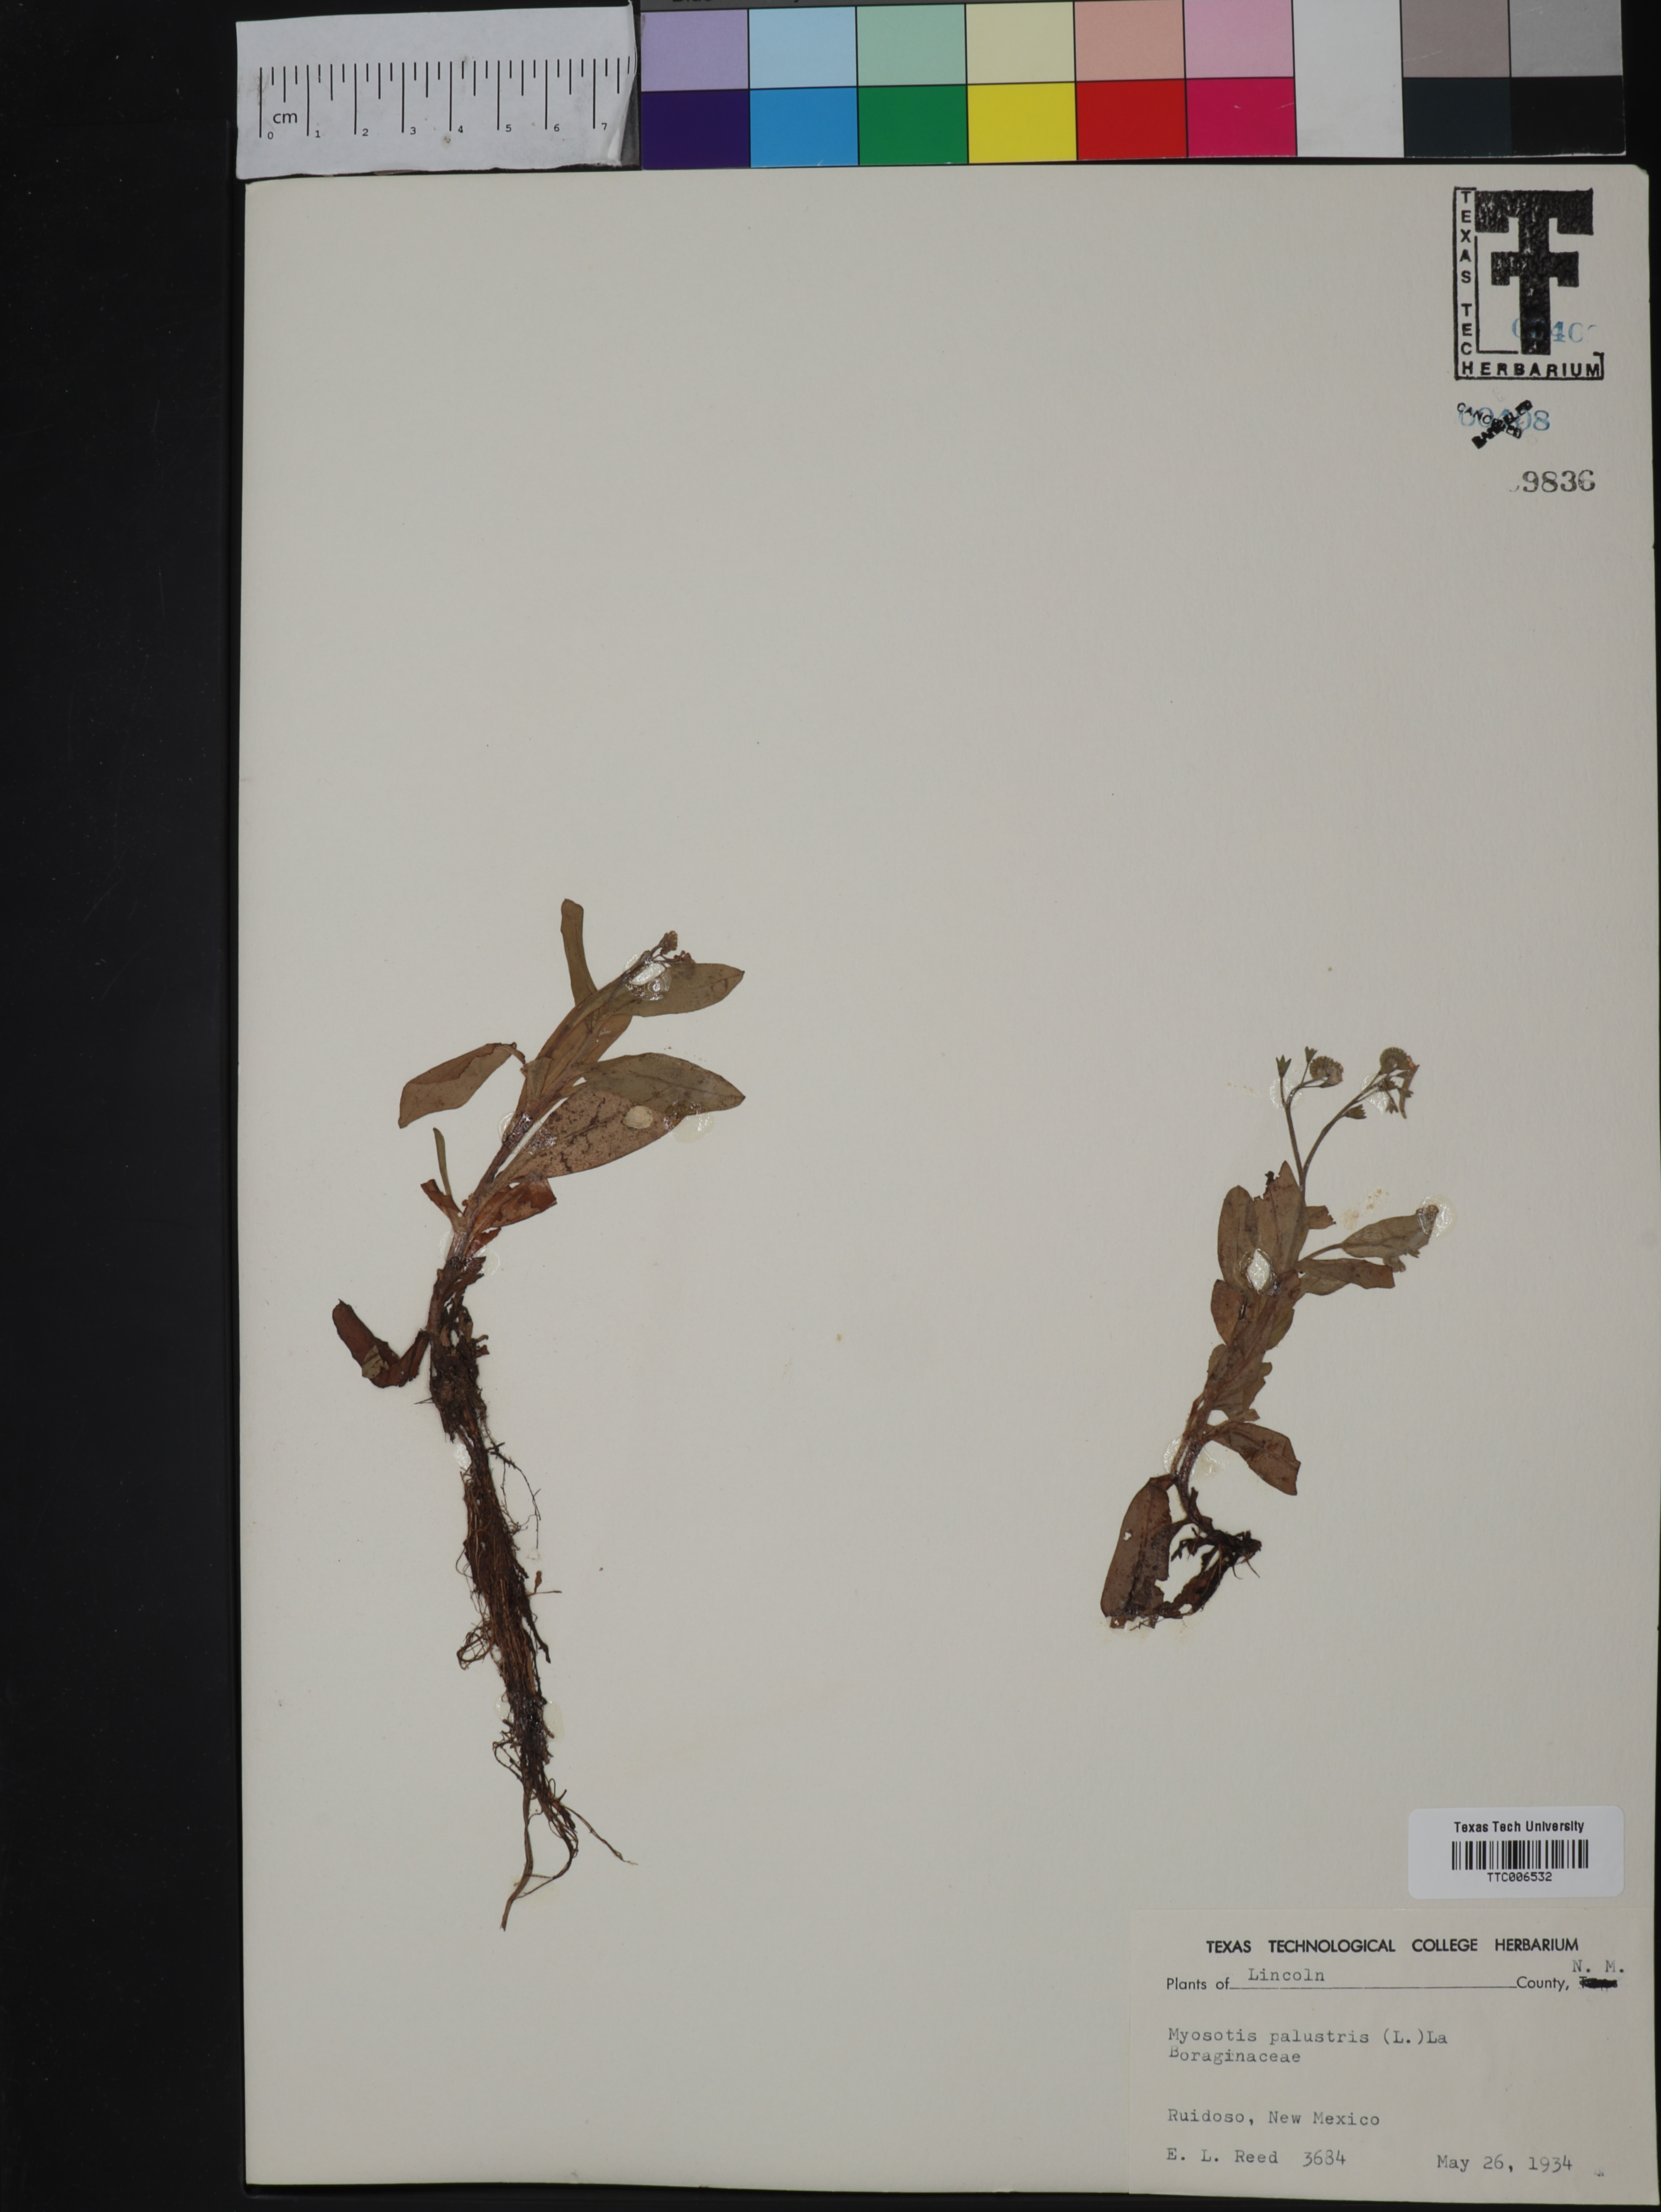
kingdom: Plantae
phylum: Tracheophyta
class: Magnoliopsida
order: Boraginales
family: Boraginaceae
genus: Myosotis
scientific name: Myosotis scorpioides
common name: Water forget-me-not
